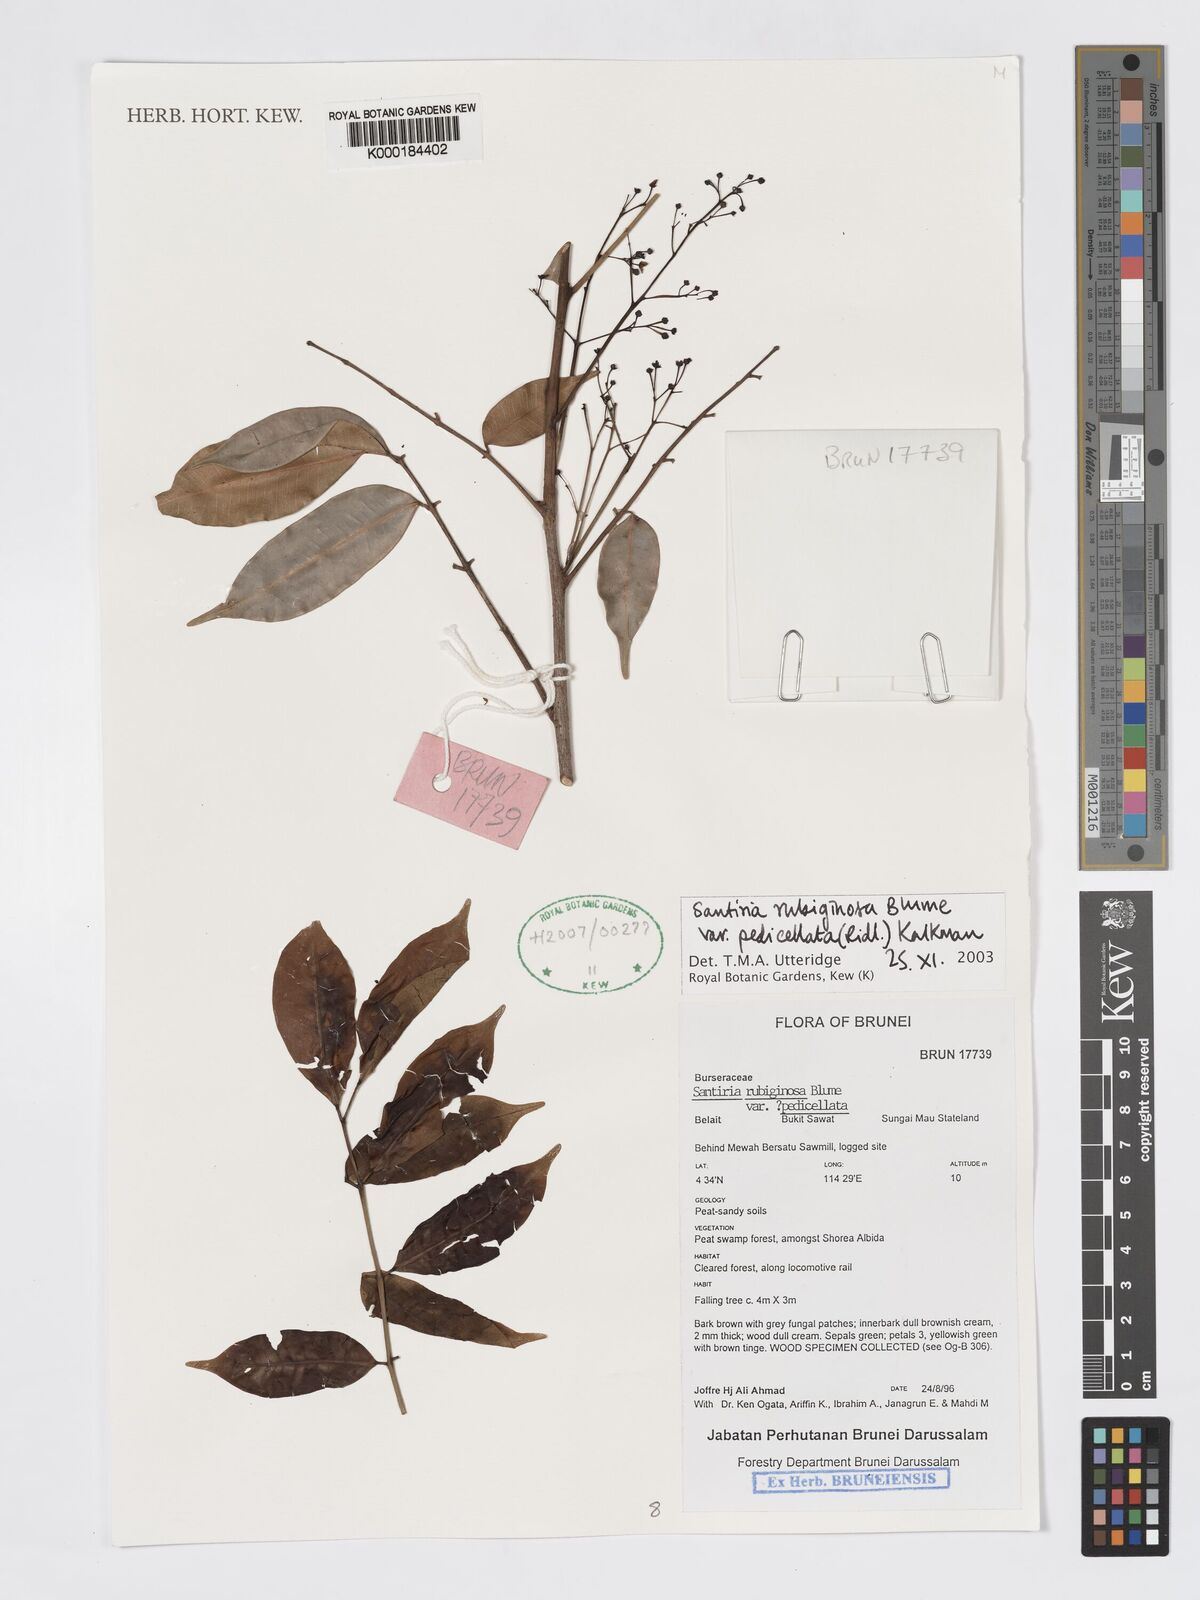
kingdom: Plantae
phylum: Tracheophyta
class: Magnoliopsida
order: Sapindales
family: Burseraceae
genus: Santiria
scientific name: Santiria rubiginosa
